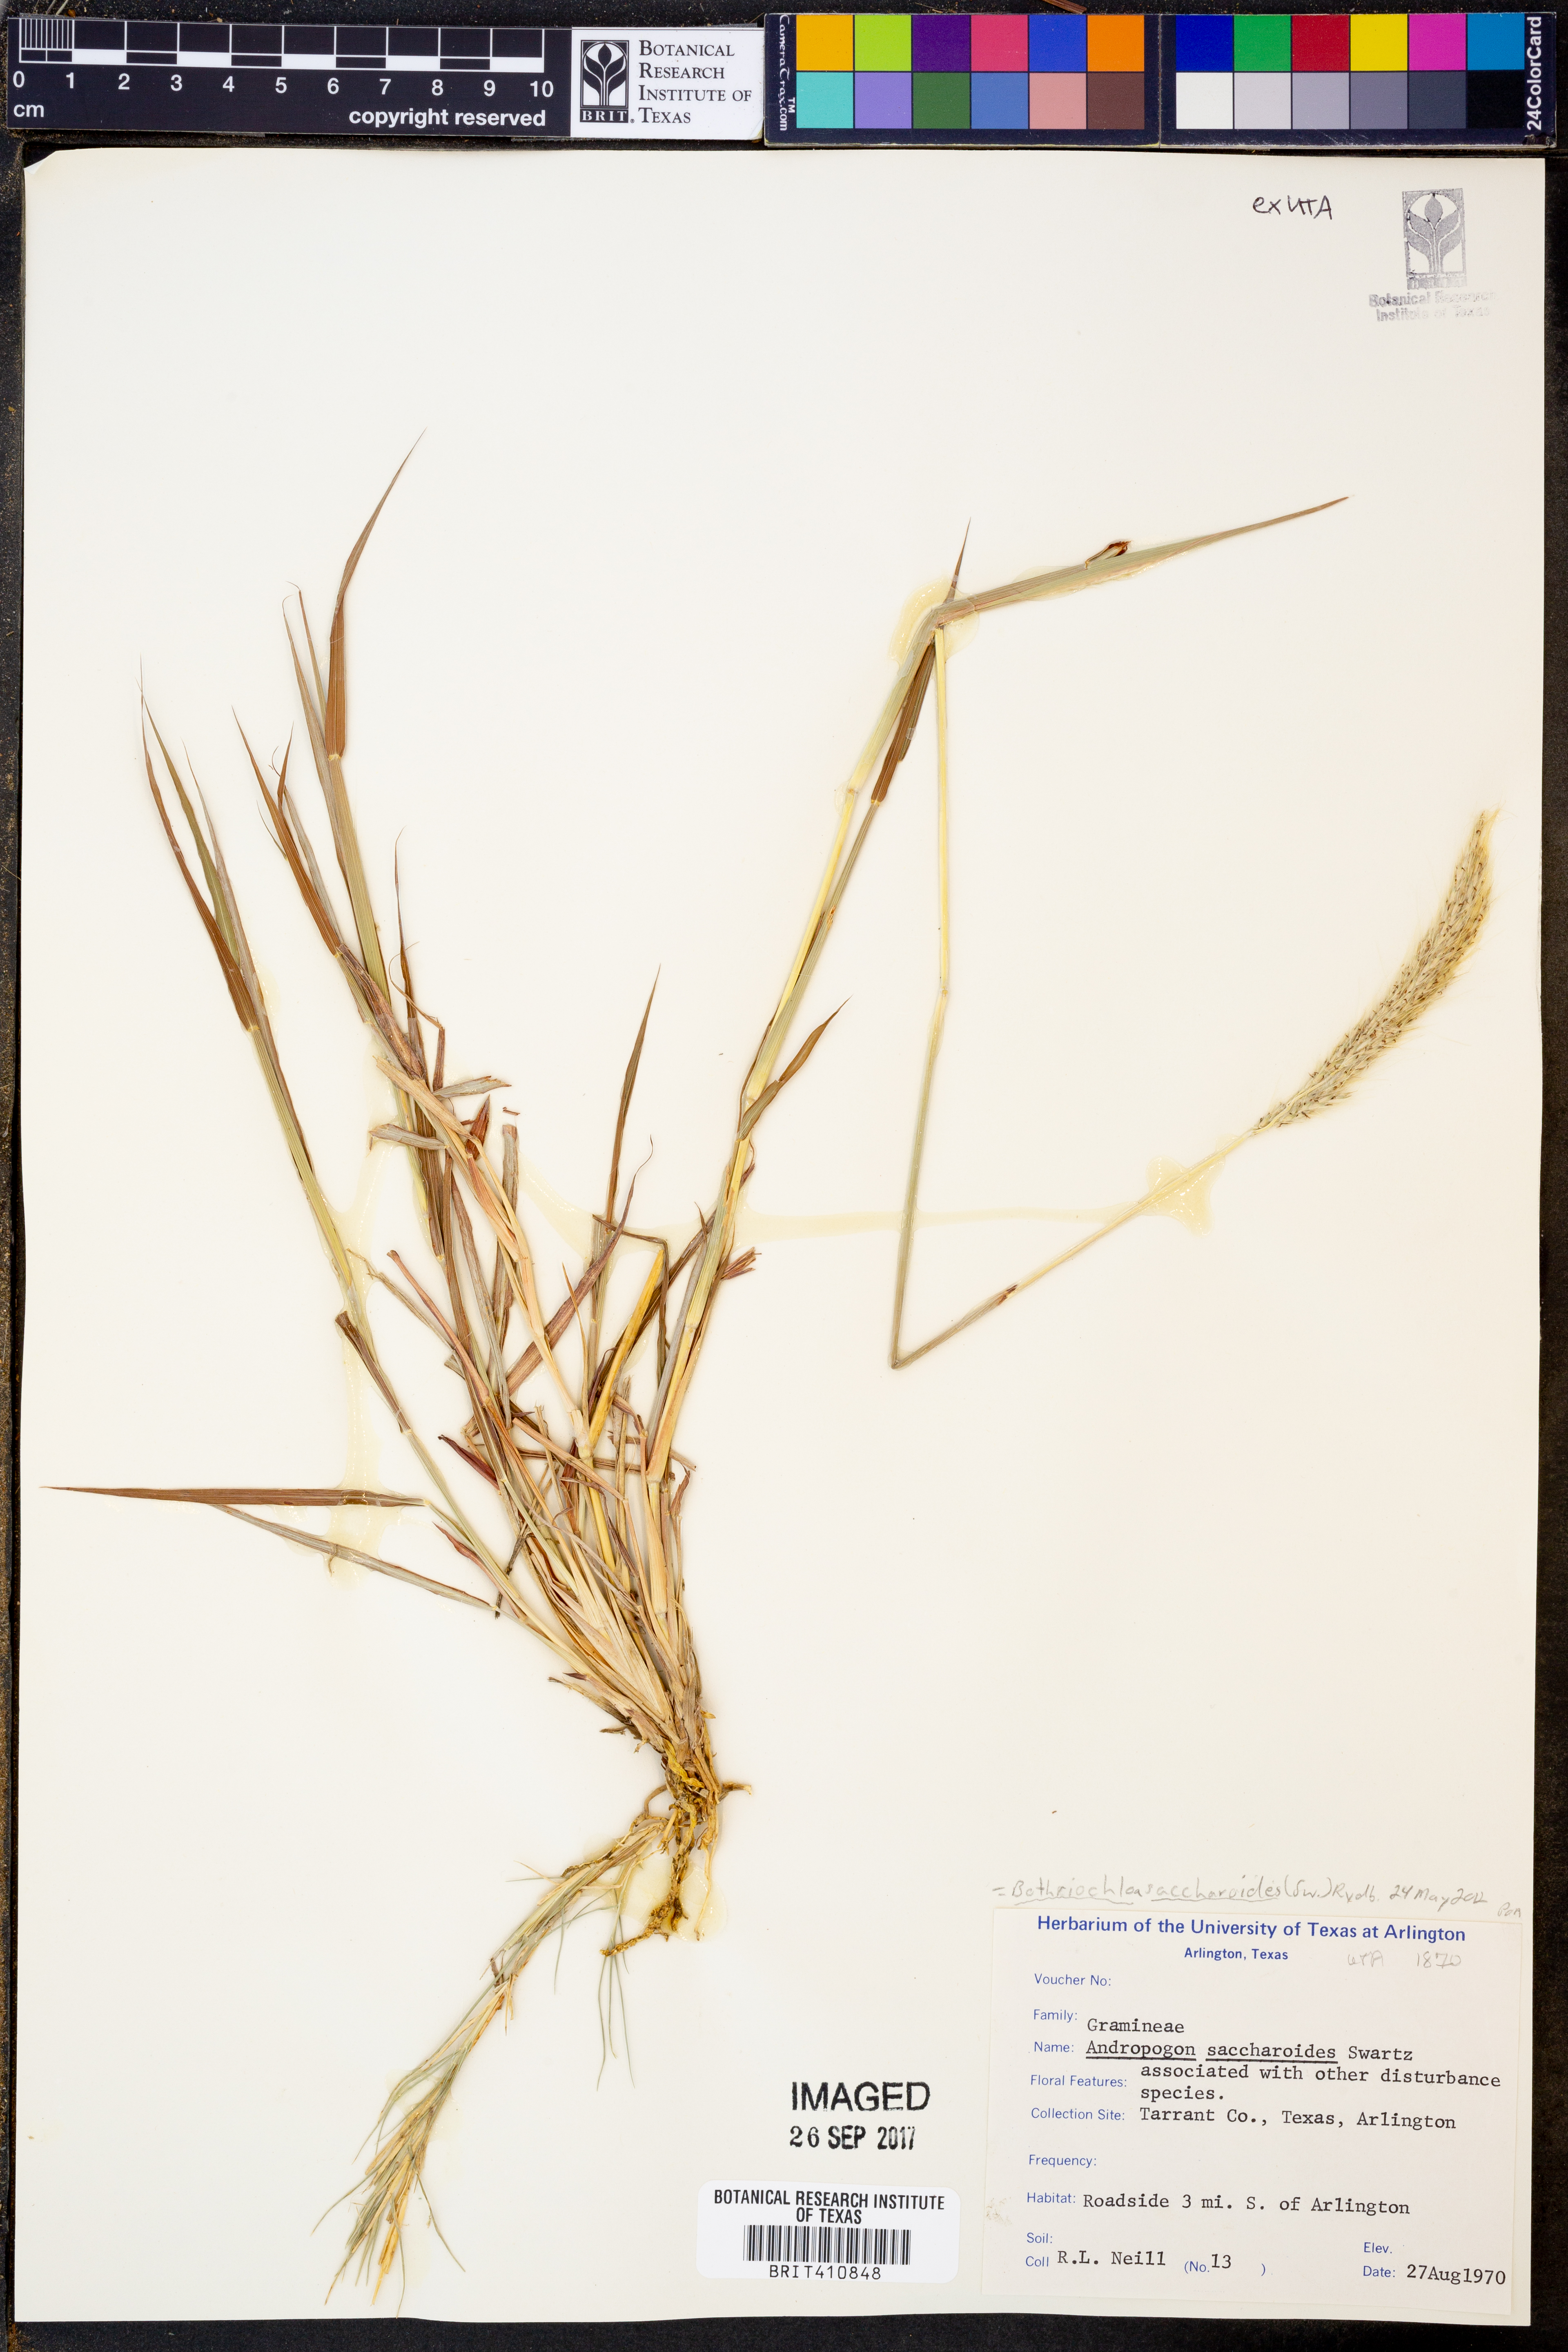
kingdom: Plantae
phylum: Tracheophyta
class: Liliopsida
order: Poales
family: Poaceae
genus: Bothriochloa
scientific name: Bothriochloa saccharoides
